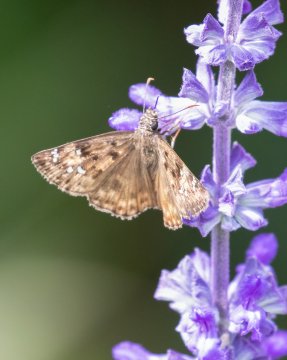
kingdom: Animalia
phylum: Arthropoda
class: Insecta
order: Lepidoptera
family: Hesperiidae
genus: Gesta
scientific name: Gesta
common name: Horace's Duskywing
